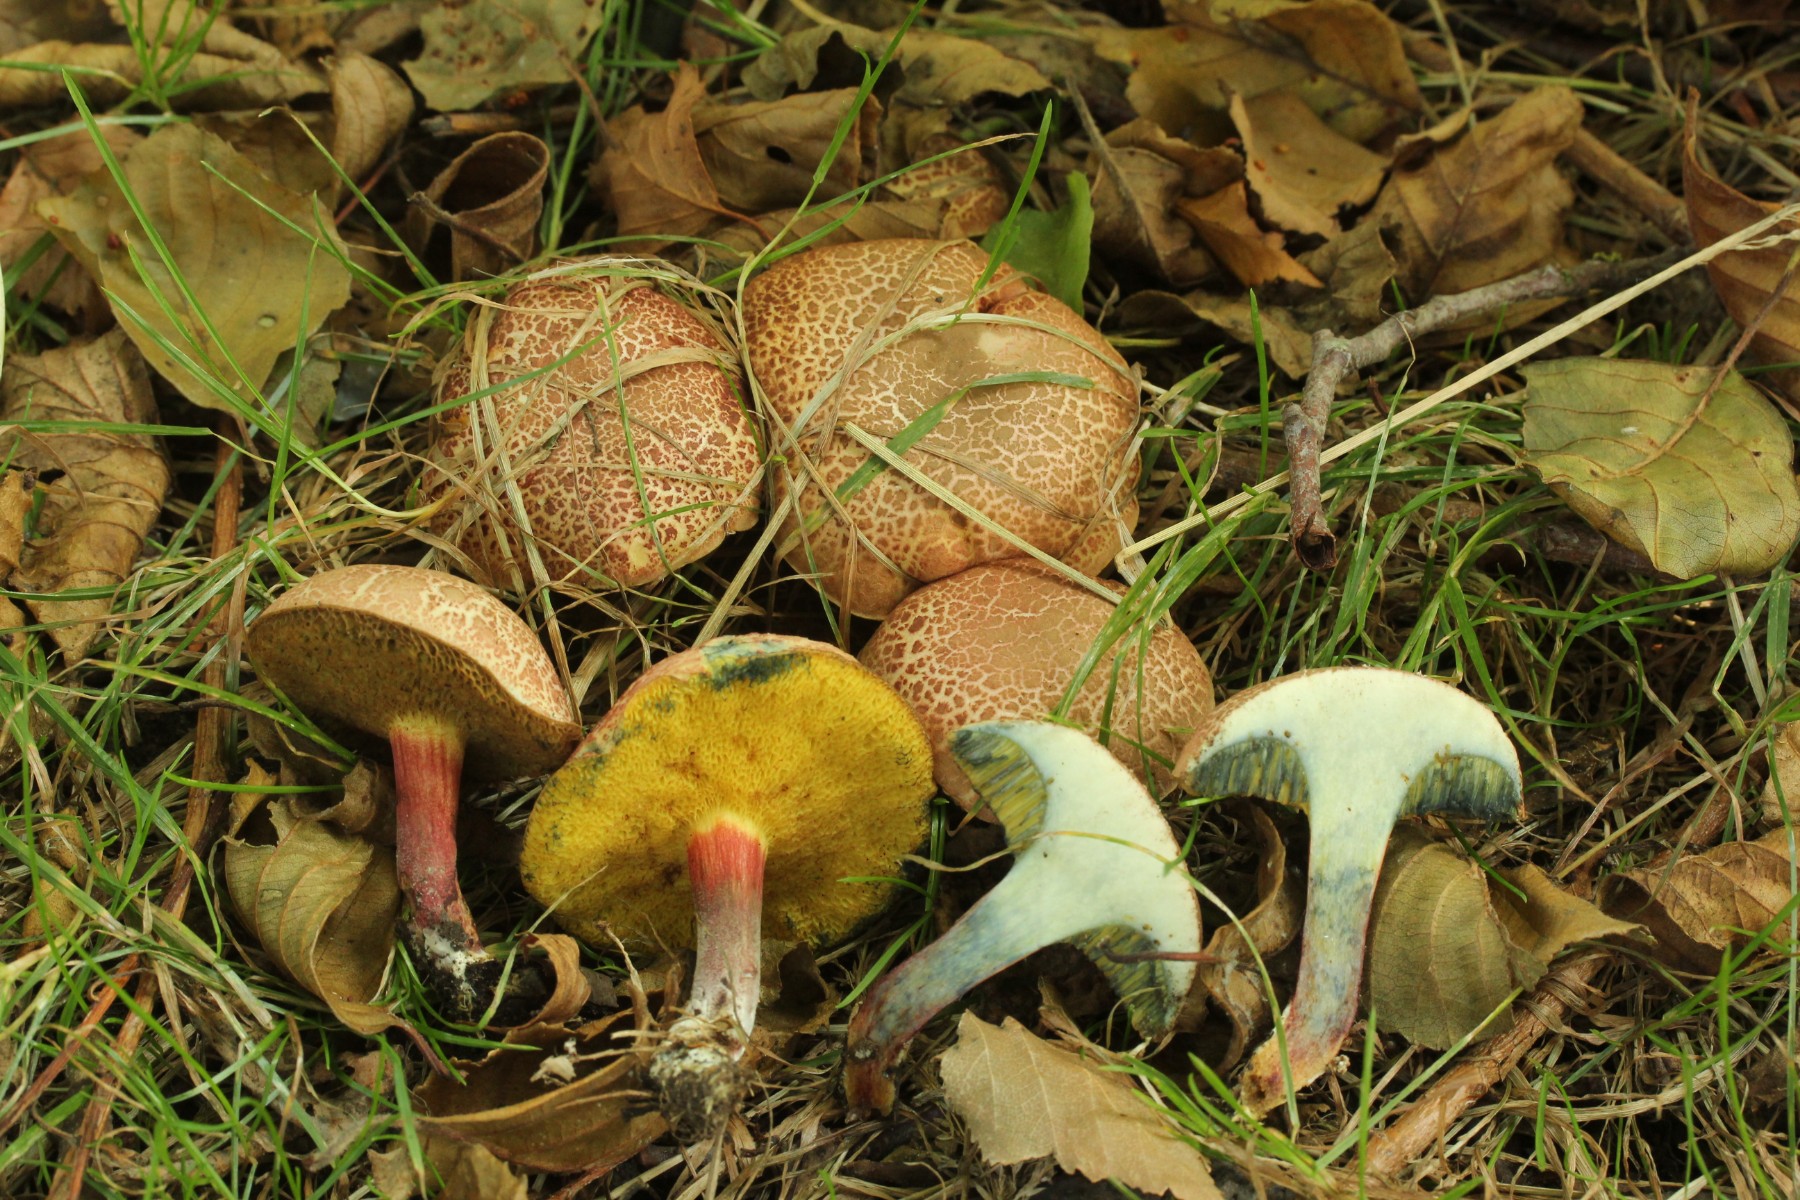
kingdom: Fungi
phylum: Basidiomycota
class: Agaricomycetes
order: Boletales
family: Boletaceae
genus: Xerocomellus
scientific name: Xerocomellus cisalpinus
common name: finsprukken rørhat
